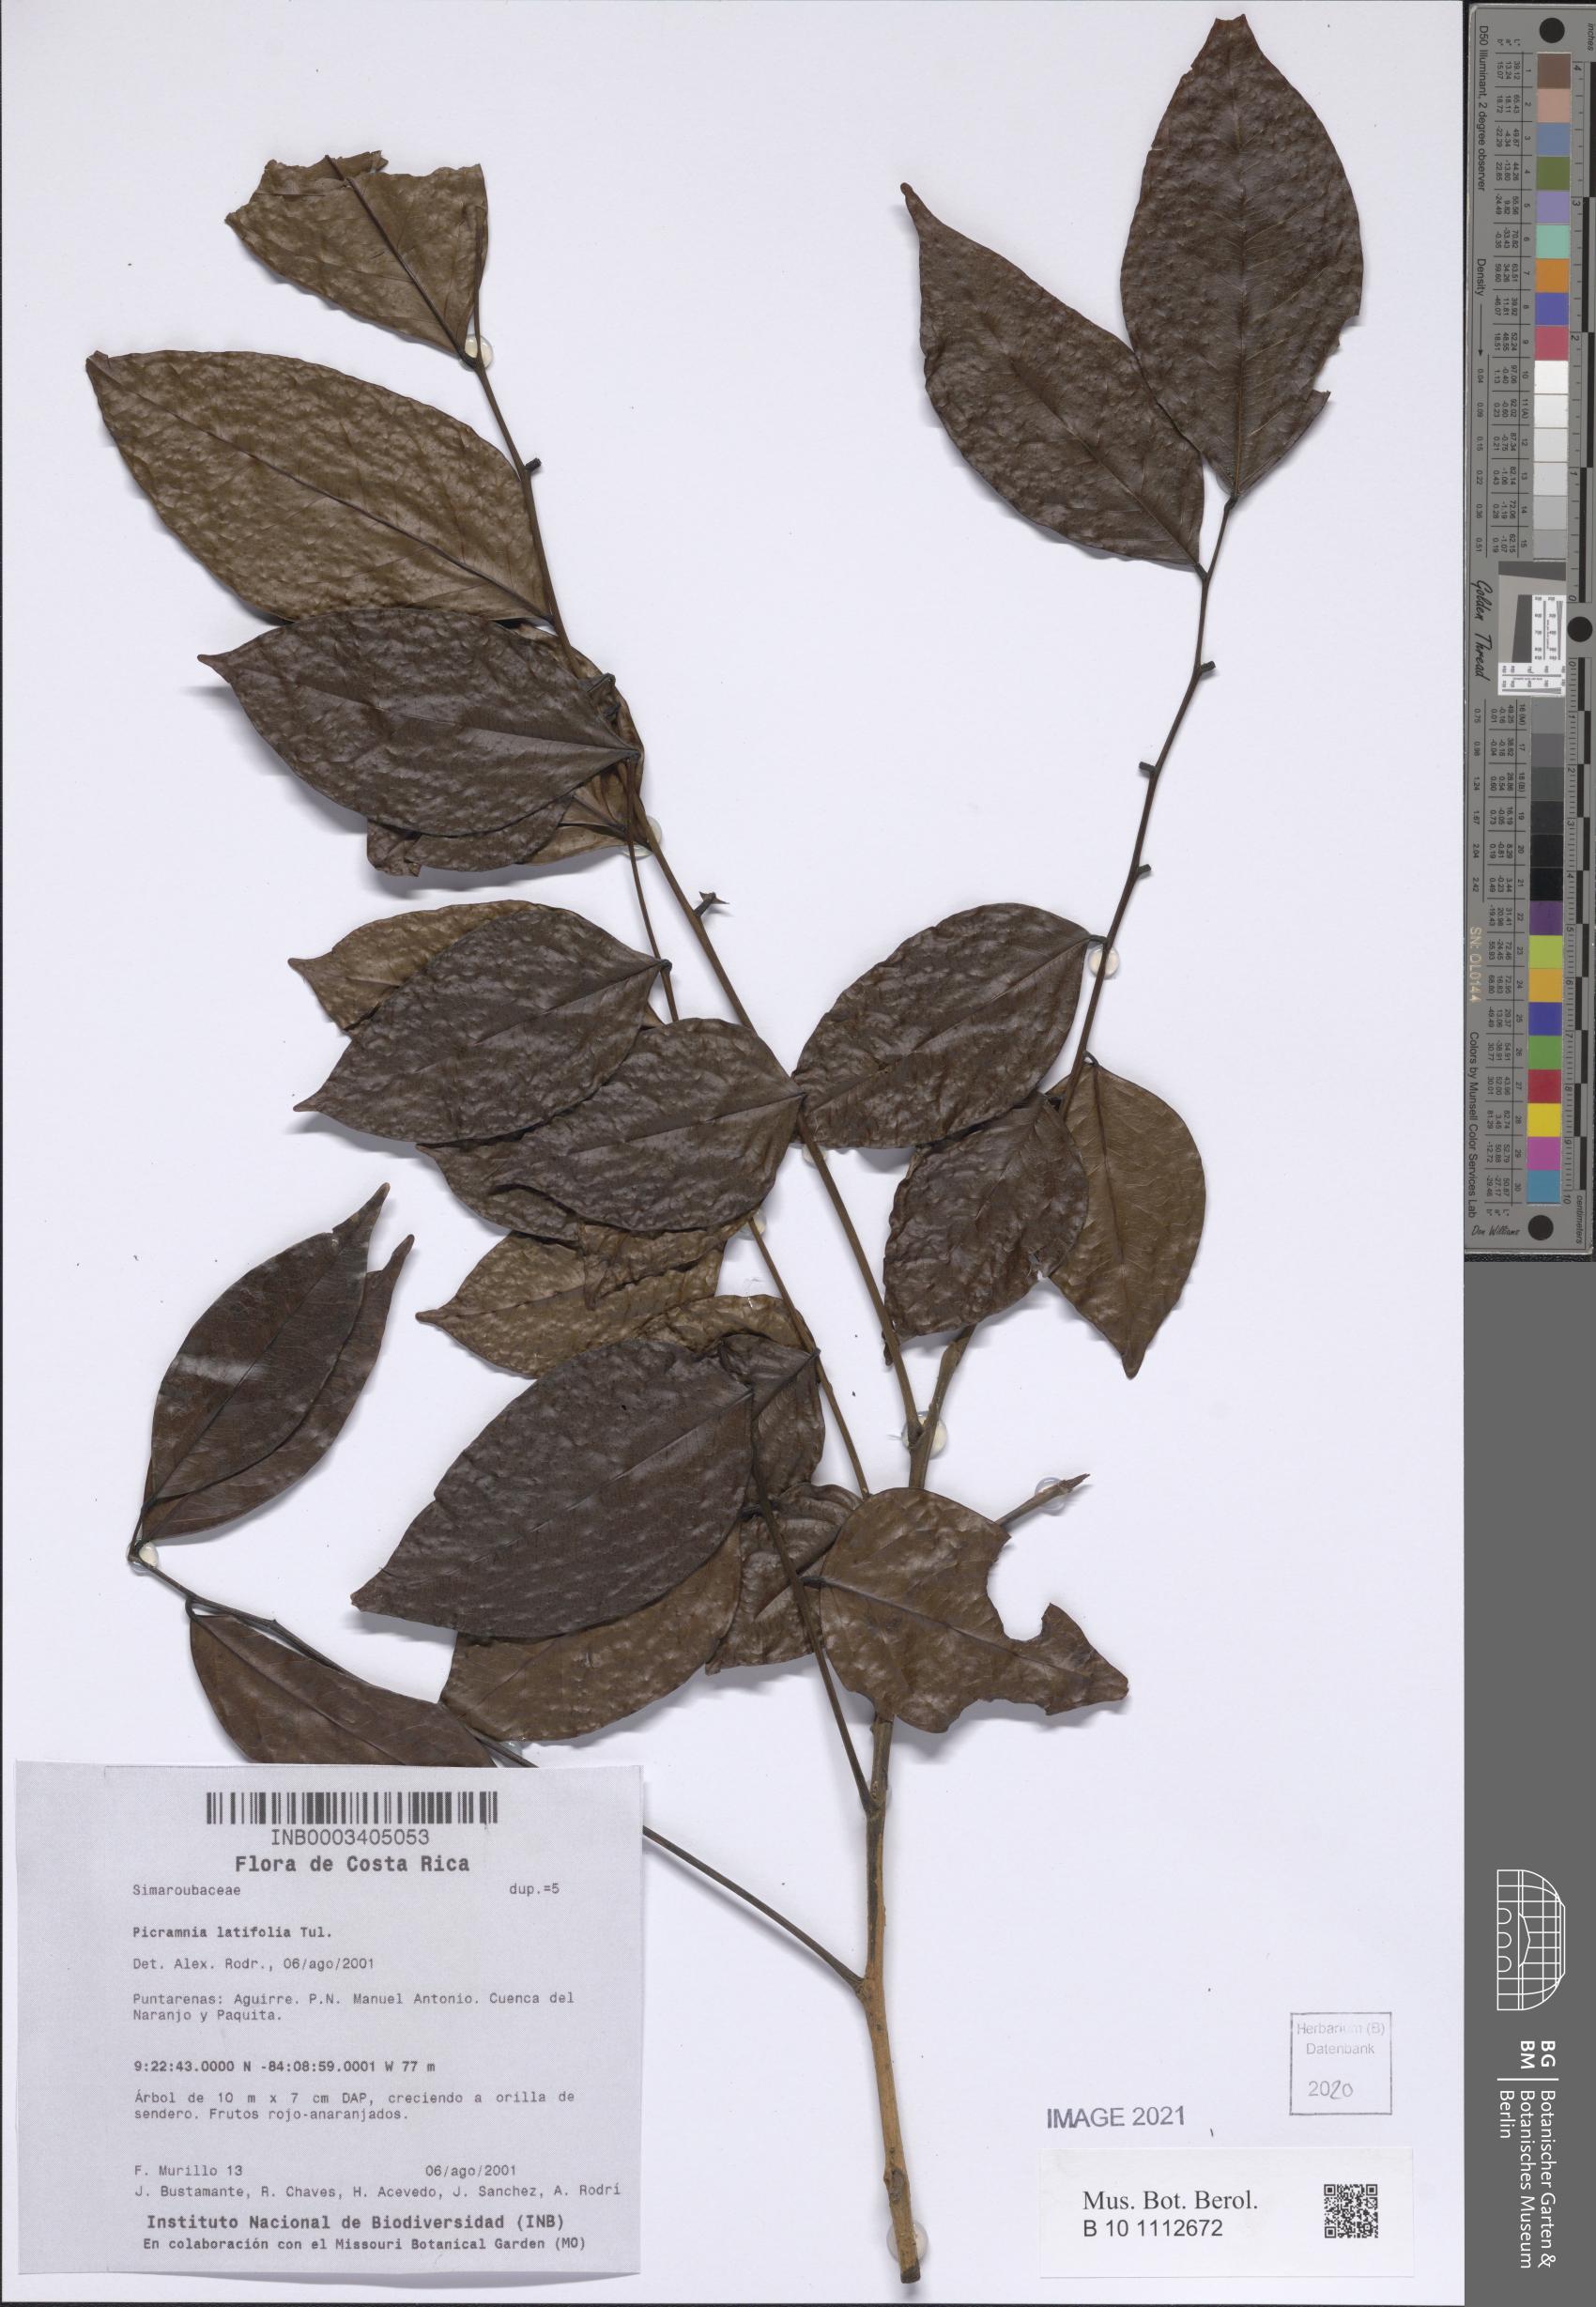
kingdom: Plantae
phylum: Tracheophyta
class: Magnoliopsida
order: Picramniales
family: Picramniaceae
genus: Picramnia
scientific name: Picramnia latifolia
